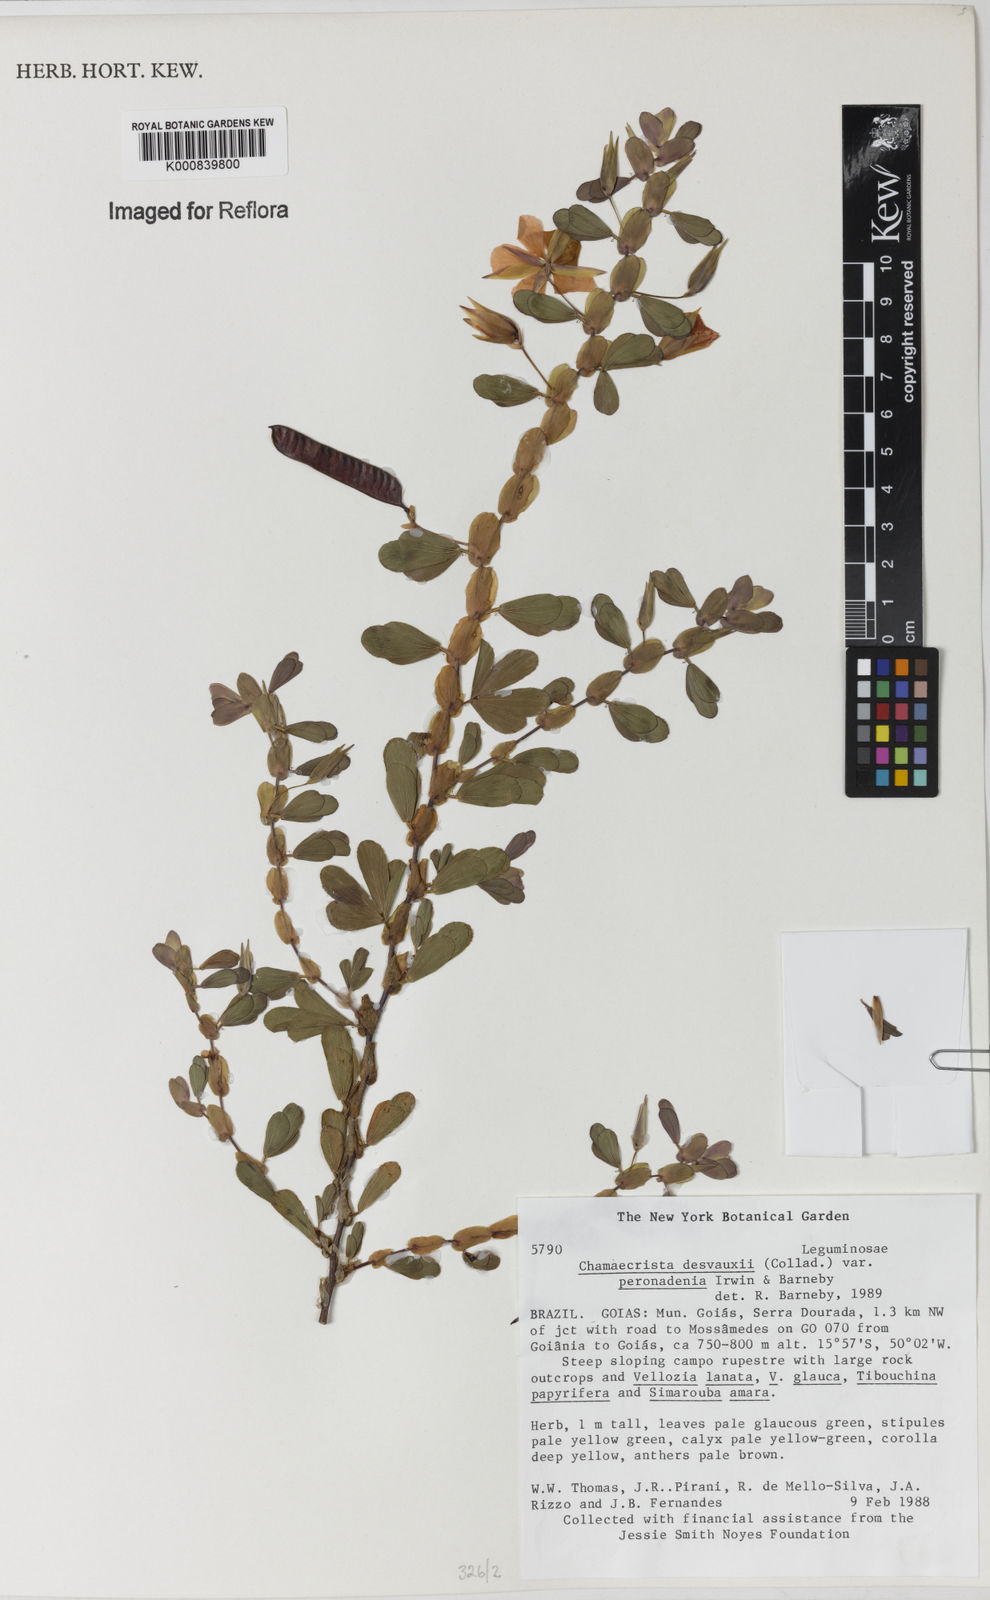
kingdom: Plantae
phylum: Tracheophyta
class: Magnoliopsida
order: Fabales
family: Fabaceae
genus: Chamaecrista
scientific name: Chamaecrista desvauxii
